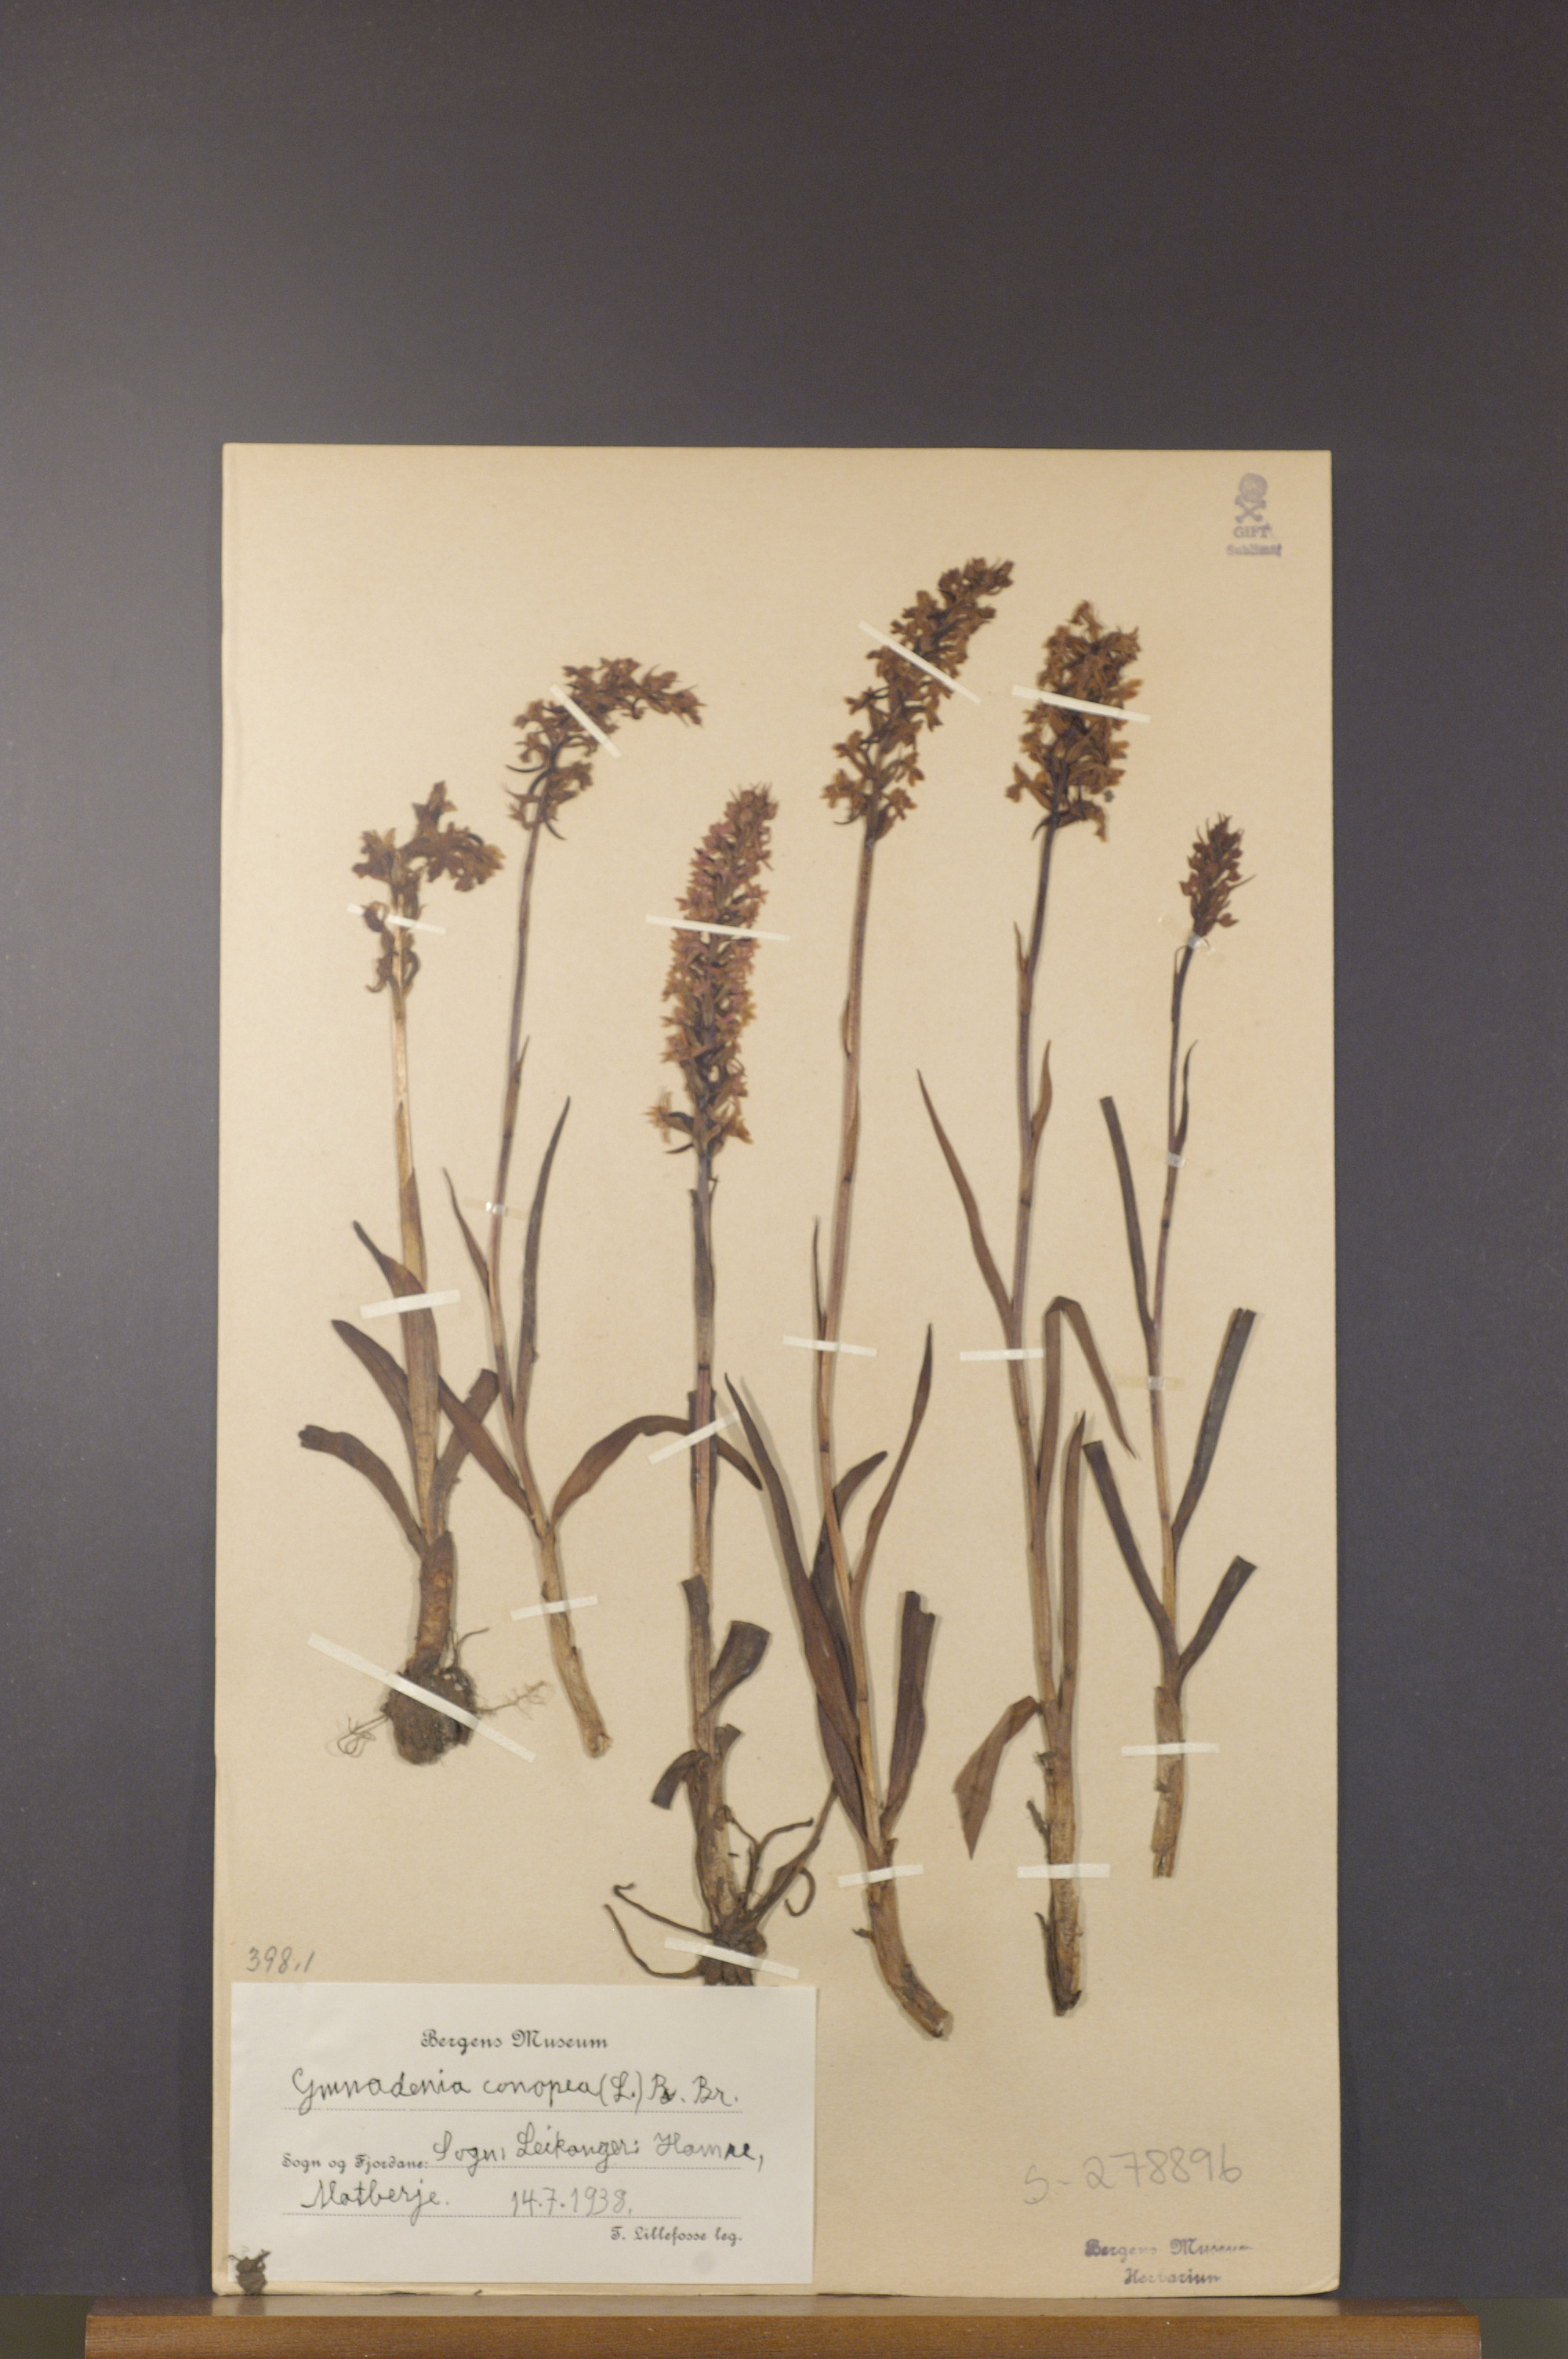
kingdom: Plantae
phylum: Tracheophyta
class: Liliopsida
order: Asparagales
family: Orchidaceae
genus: Gymnadenia
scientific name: Gymnadenia conopsea
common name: Fragrant orchid
